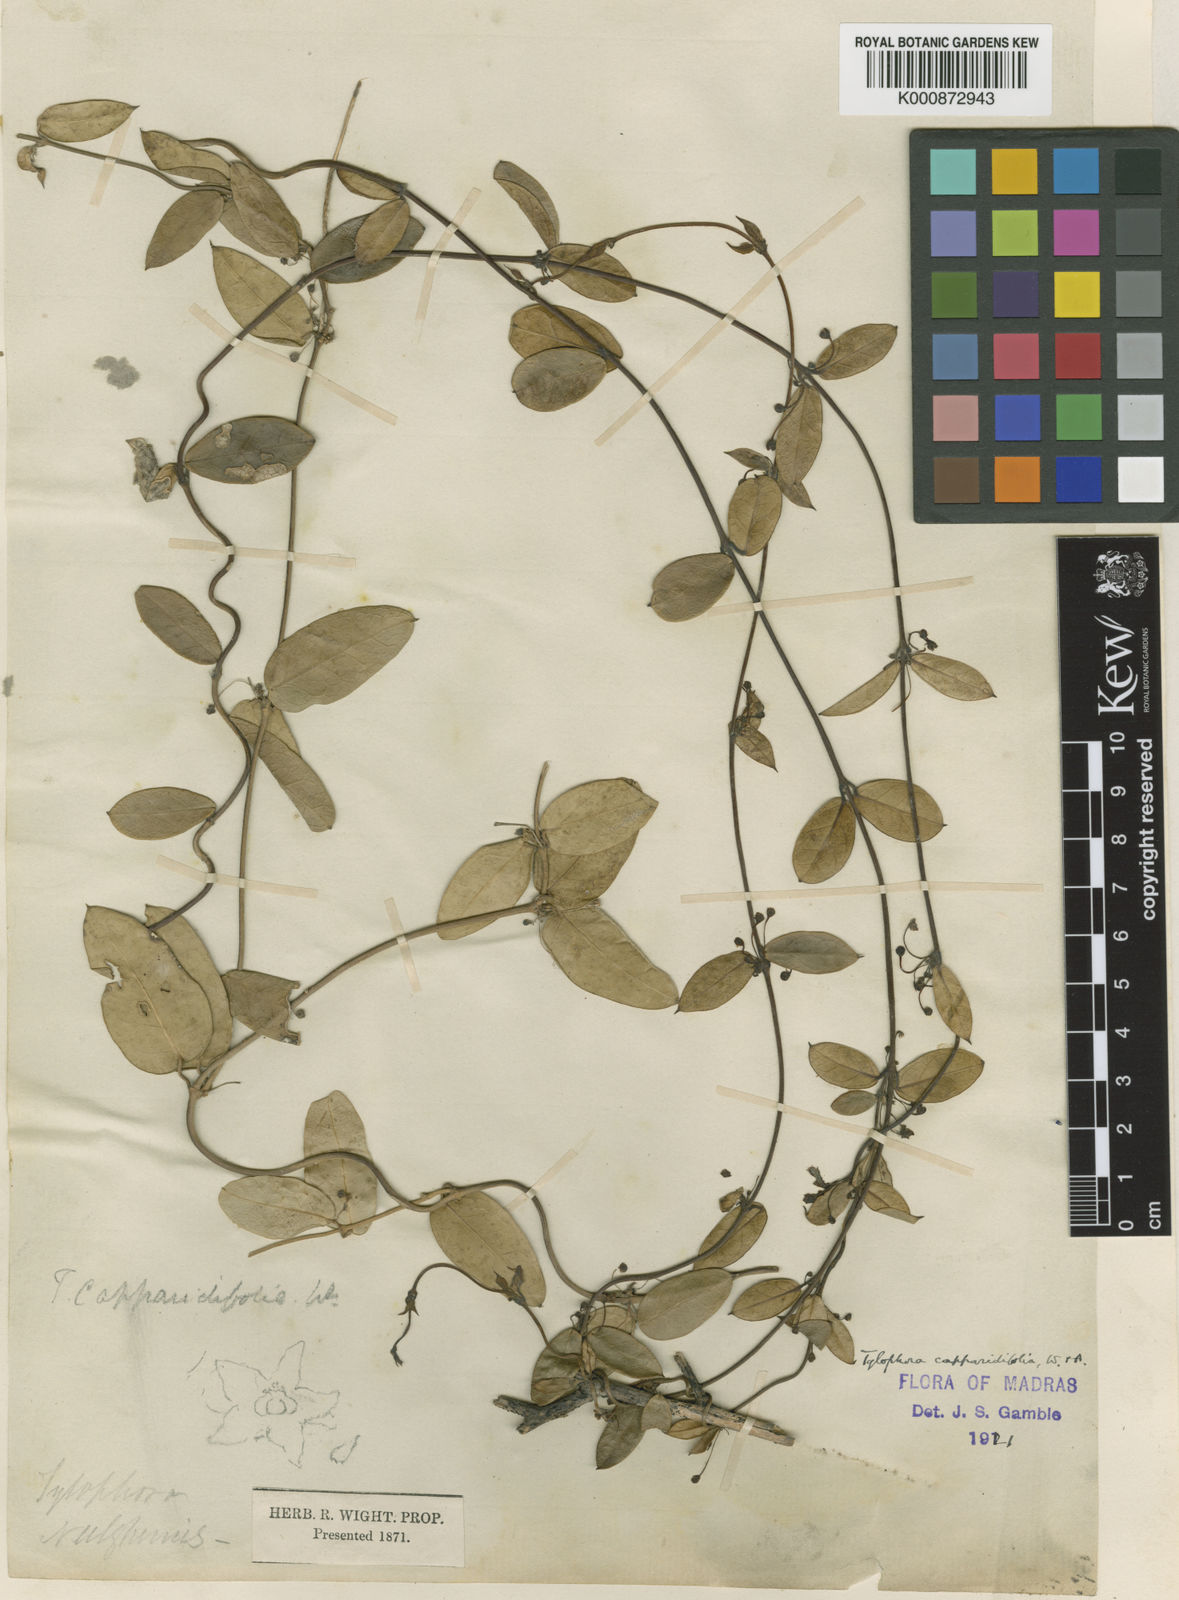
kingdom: Plantae
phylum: Tracheophyta
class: Magnoliopsida
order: Gentianales
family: Apocynaceae
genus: Vincetoxicum
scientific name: Vincetoxicum capparidifolium
